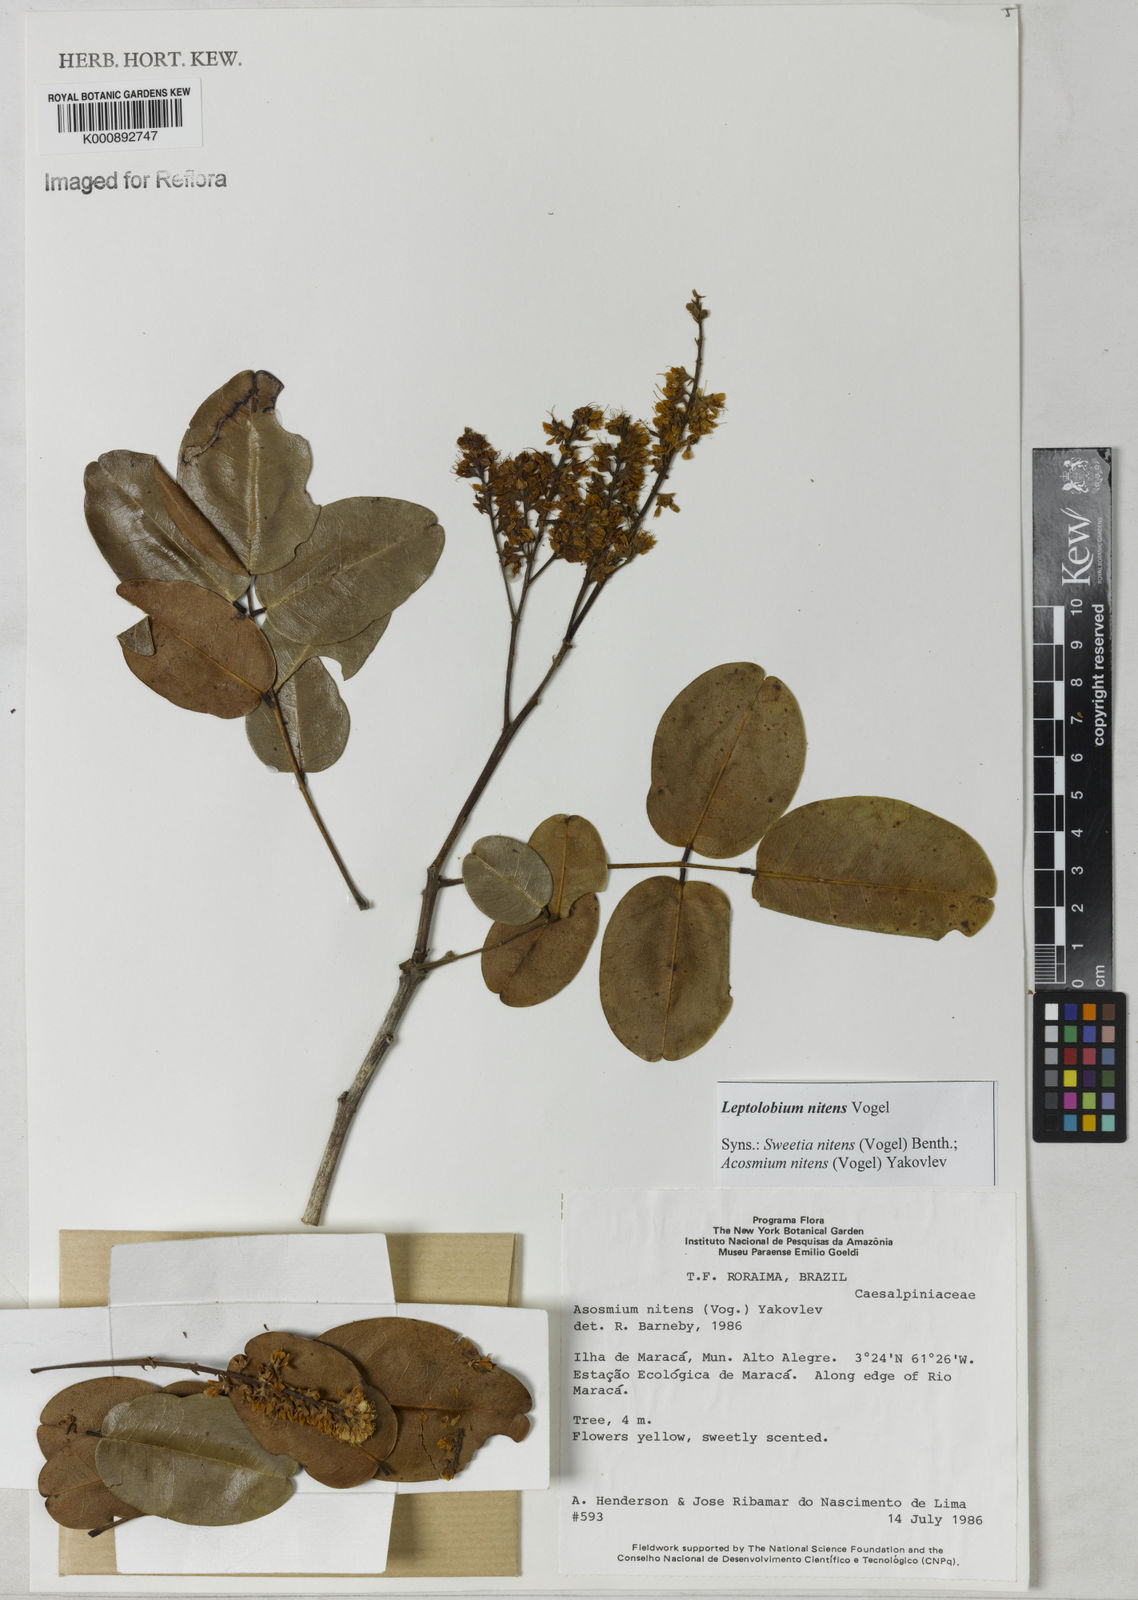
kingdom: Plantae
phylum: Tracheophyta
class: Magnoliopsida
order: Fabales
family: Fabaceae
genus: Leptolobium
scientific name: Leptolobium nitens
